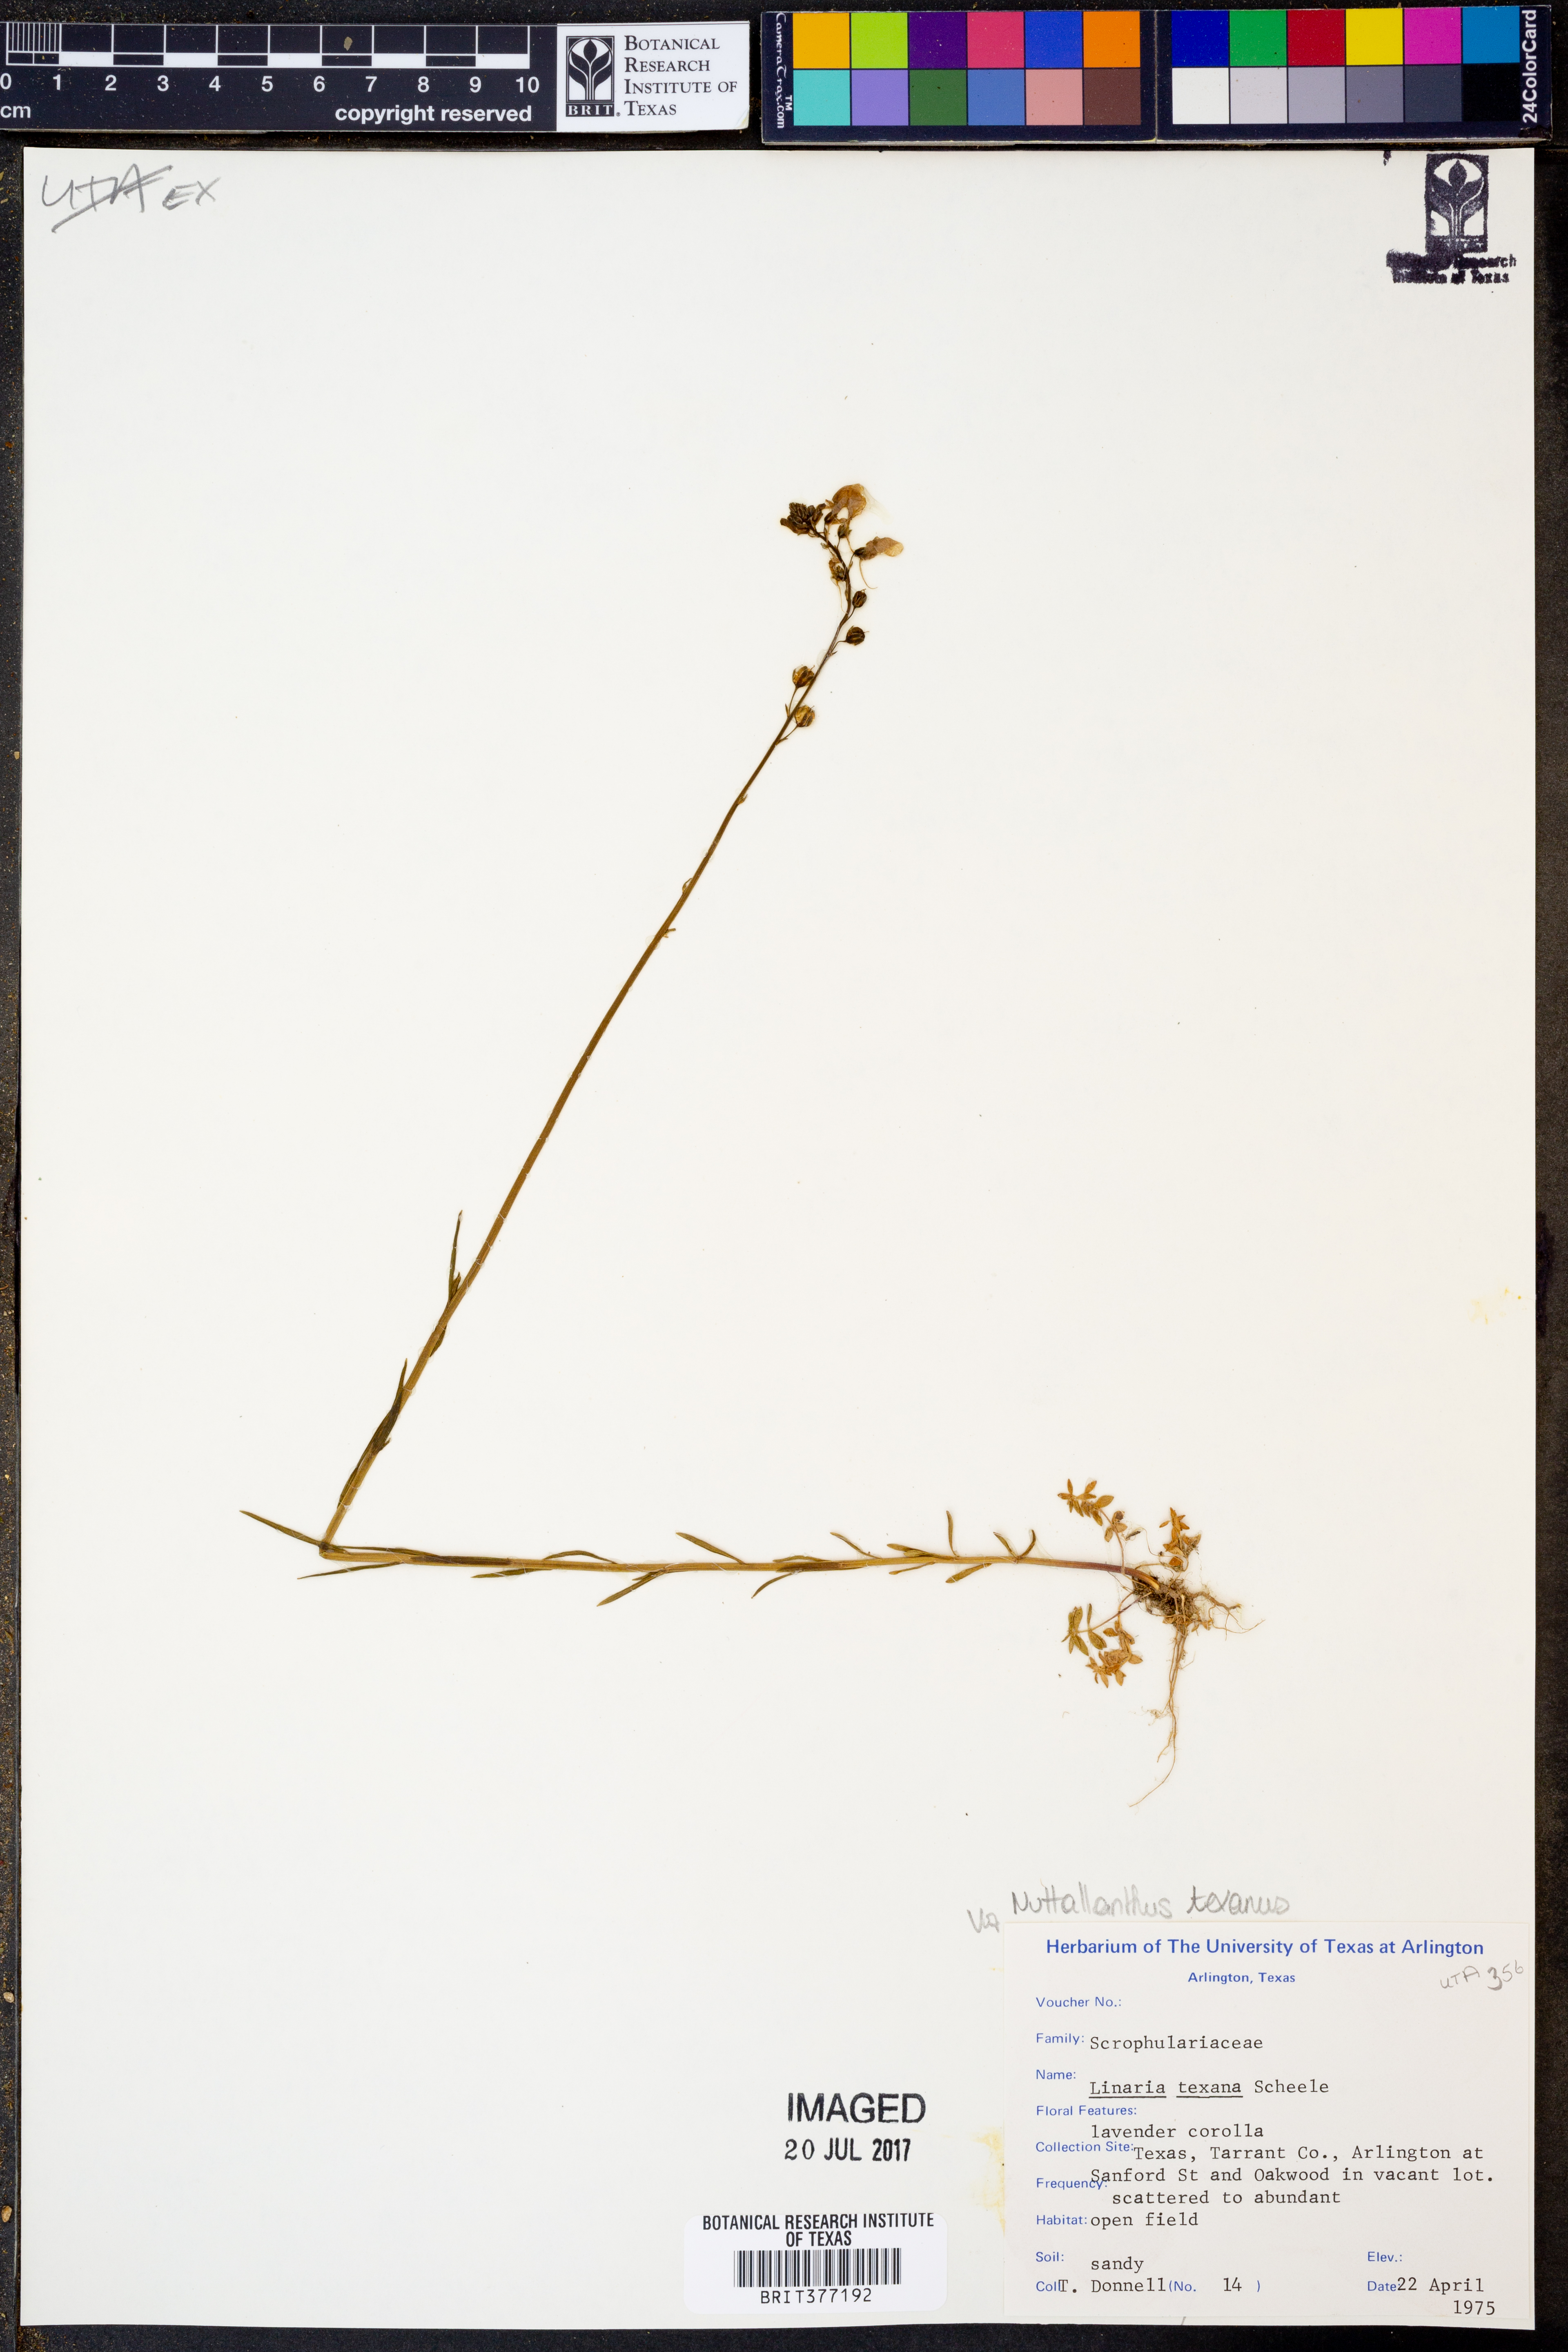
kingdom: Plantae
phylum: Tracheophyta
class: Magnoliopsida
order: Lamiales
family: Plantaginaceae
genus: Nuttallanthus
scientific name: Nuttallanthus texanus
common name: Texas toadflax
